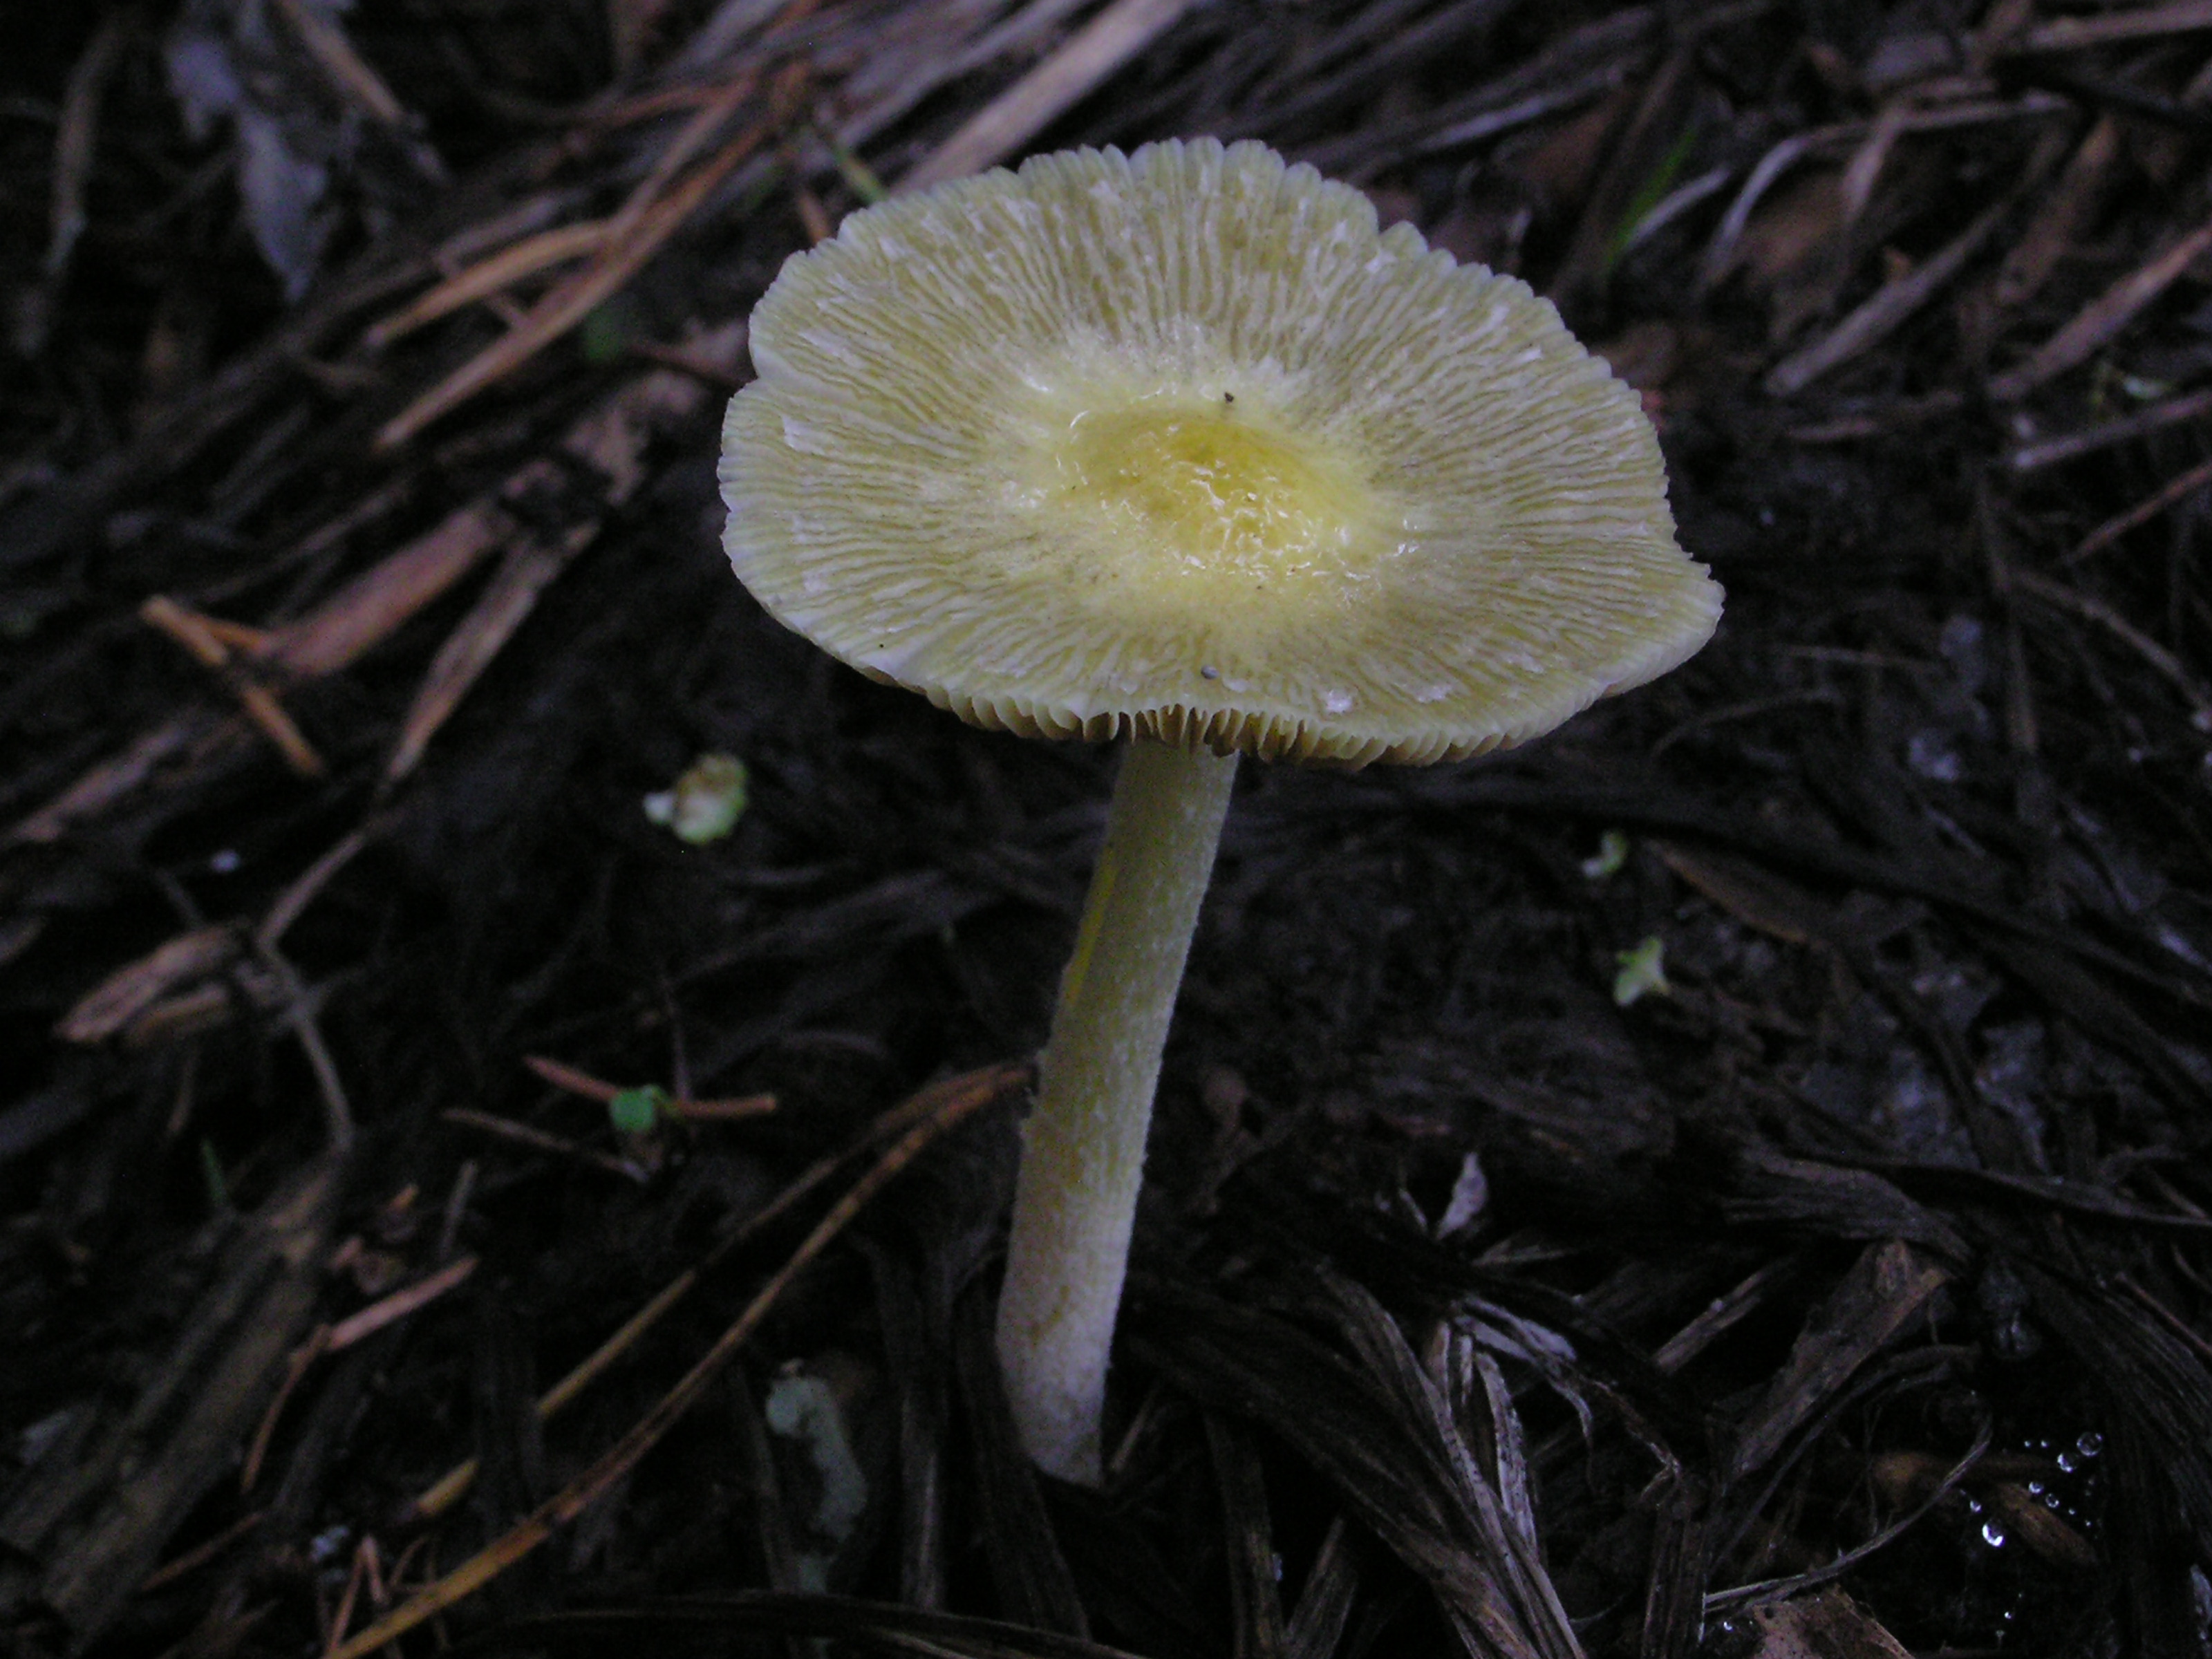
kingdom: Fungi
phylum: Basidiomycota
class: Agaricomycetes
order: Agaricales
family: Bolbitiaceae
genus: Bolbitius
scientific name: Bolbitius titubans
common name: Yellow fieldcap
